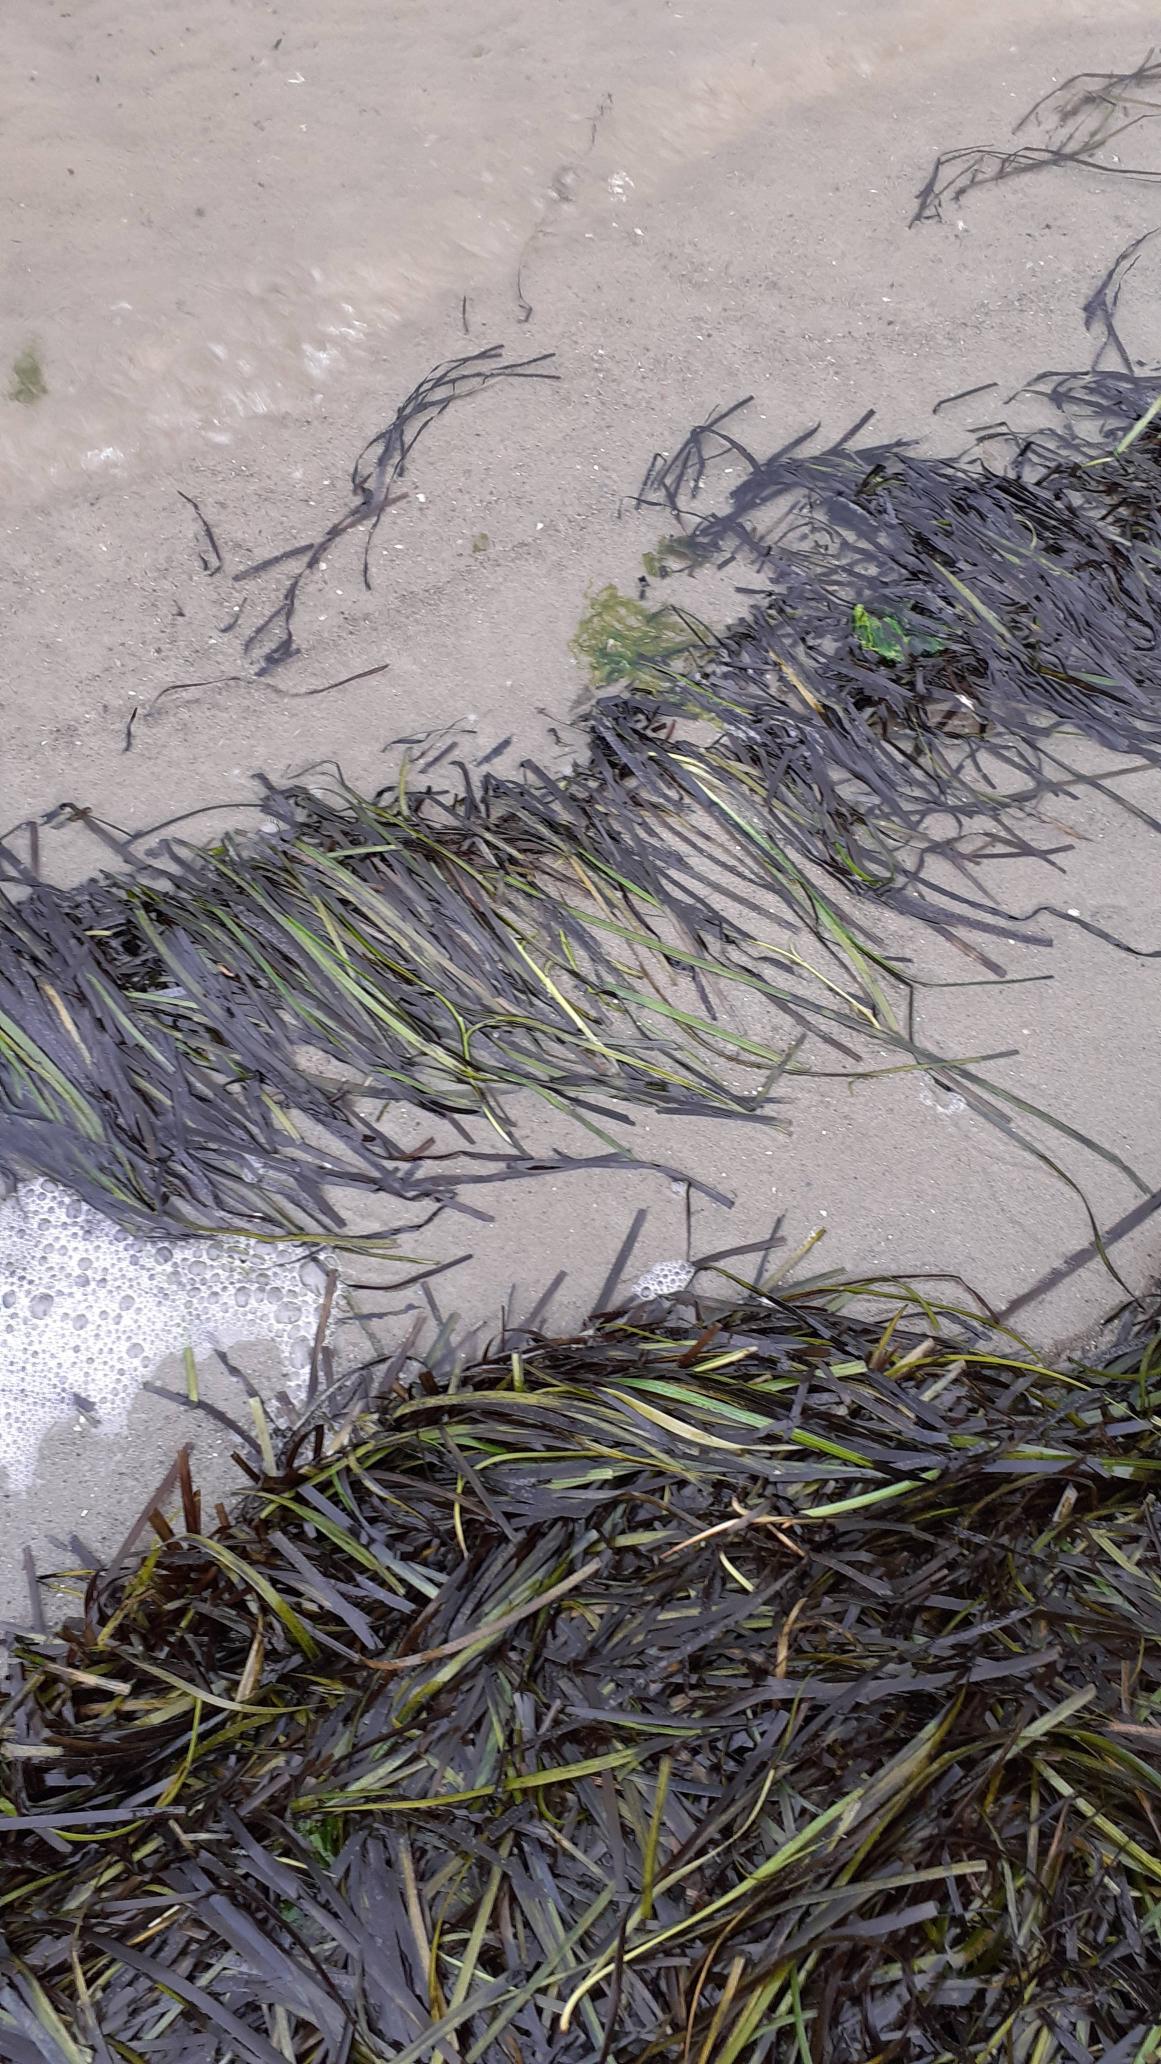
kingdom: Plantae
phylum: Tracheophyta
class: Liliopsida
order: Alismatales
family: Zosteraceae
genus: Zostera
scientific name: Zostera marina
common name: Almindelig bændeltang
